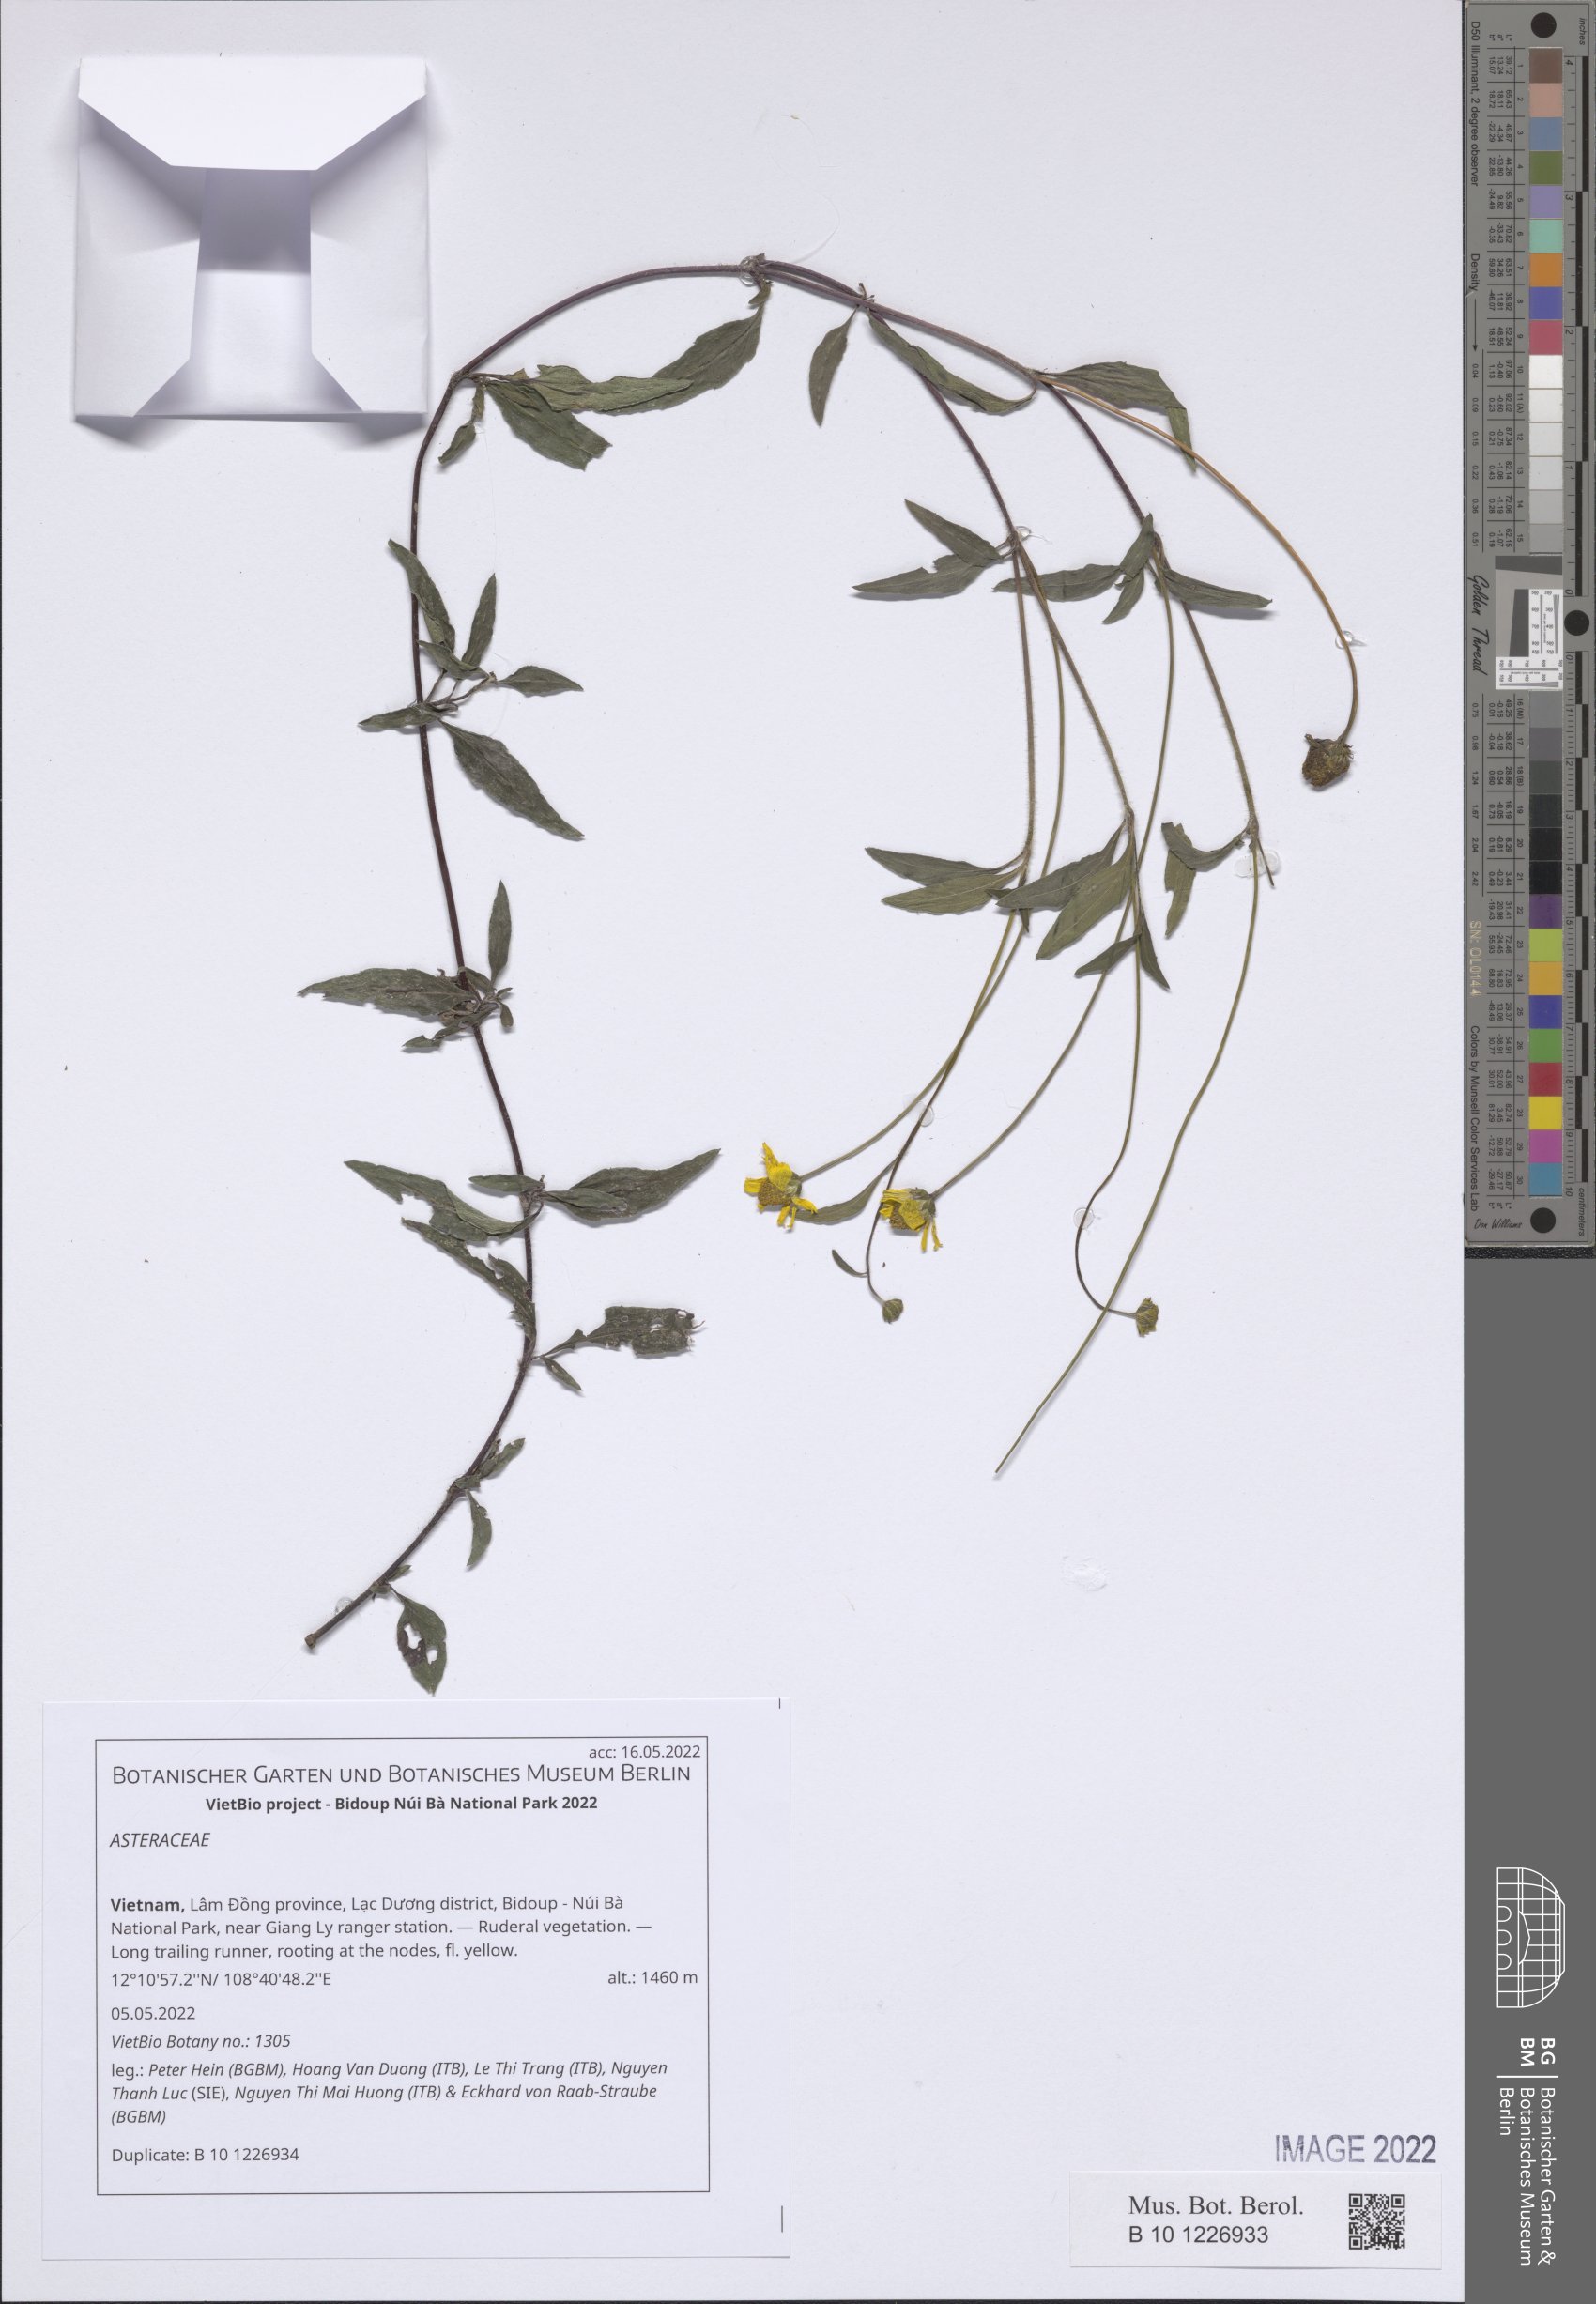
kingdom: Plantae
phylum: Tracheophyta
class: Magnoliopsida
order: Asterales
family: Asteraceae
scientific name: Asteraceae
